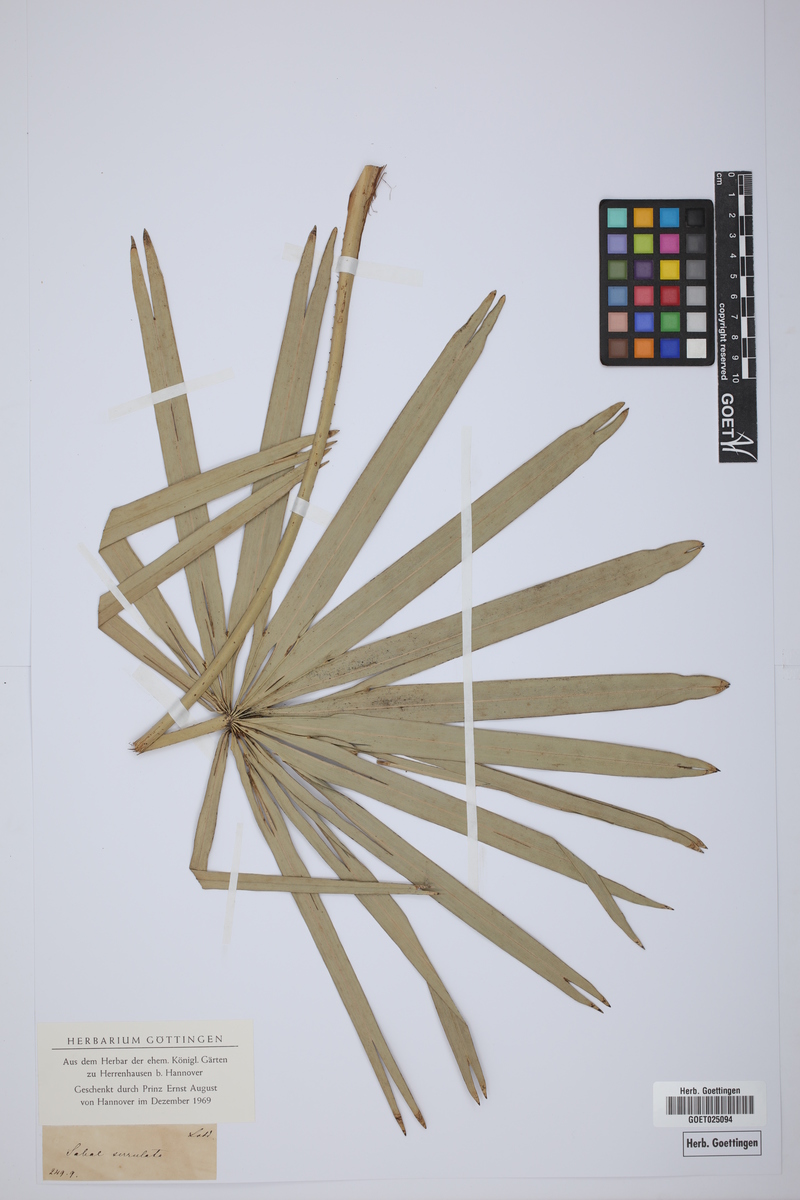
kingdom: Plantae
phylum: Tracheophyta
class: Liliopsida
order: Arecales
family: Arecaceae
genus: Serenoa
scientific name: Serenoa repens
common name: Saw-palmetto
